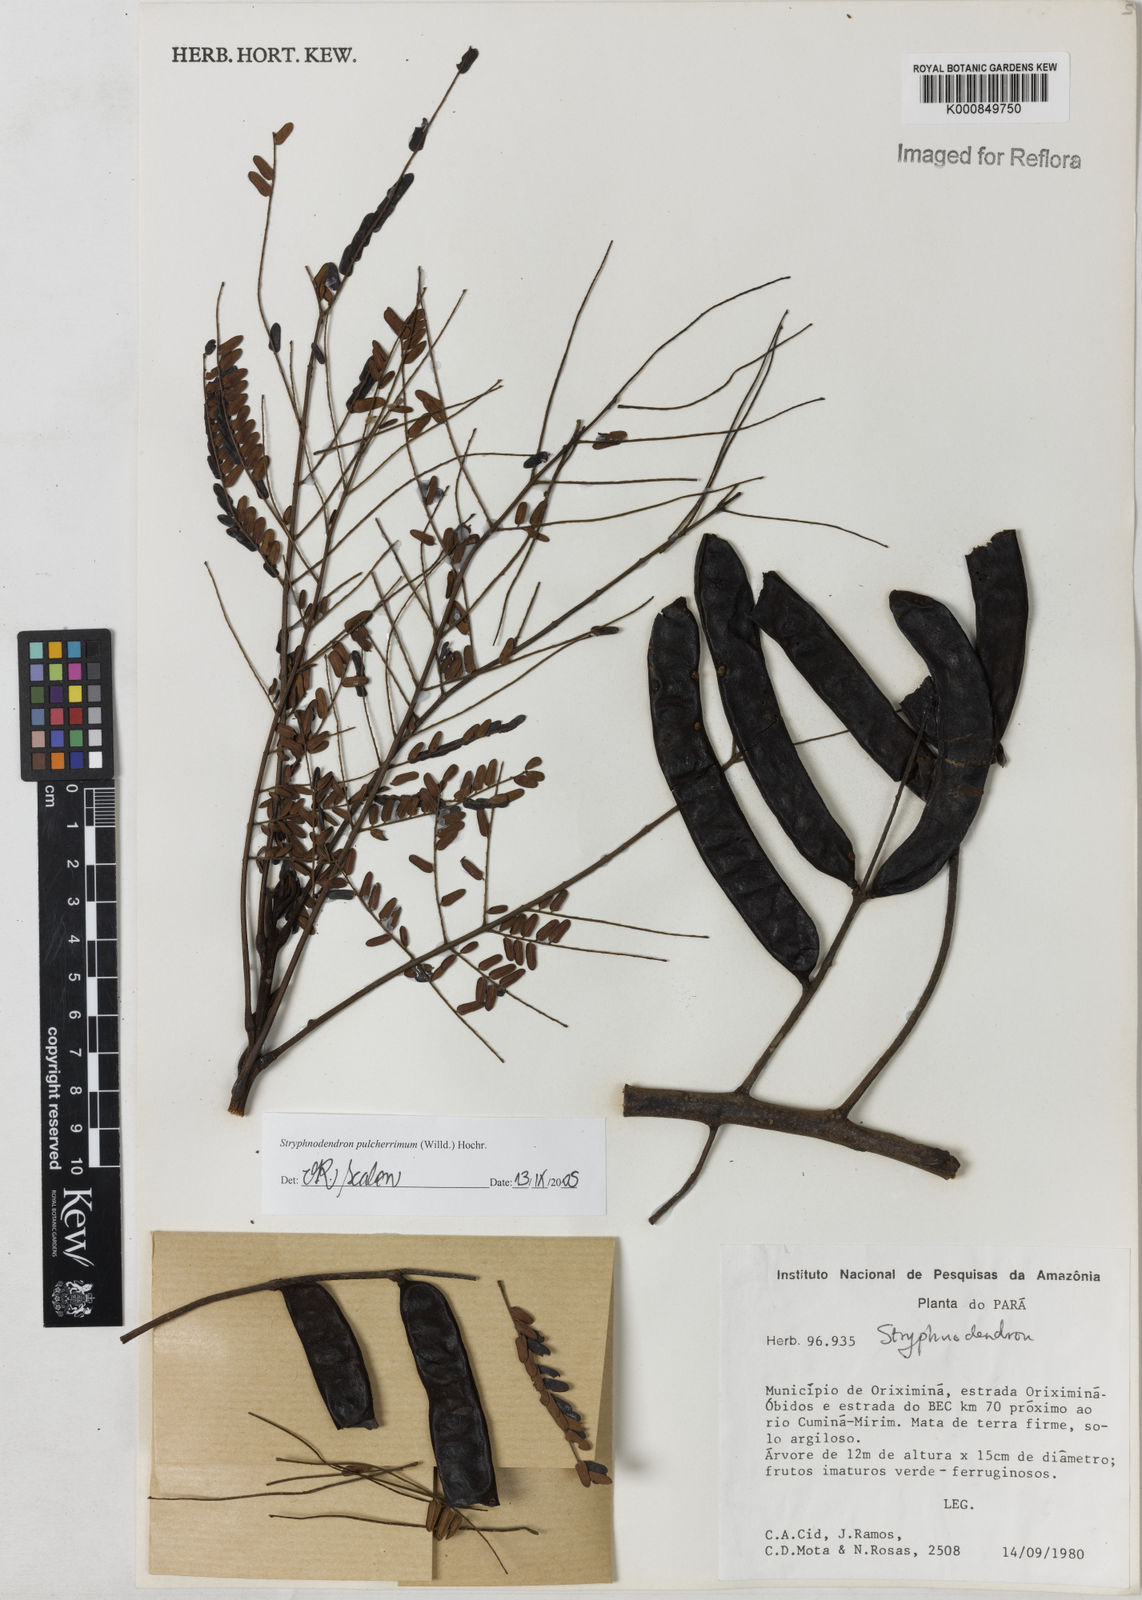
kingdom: Plantae
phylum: Tracheophyta
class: Magnoliopsida
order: Fabales
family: Fabaceae
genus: Stryphnodendron
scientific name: Stryphnodendron pulcherrimum
